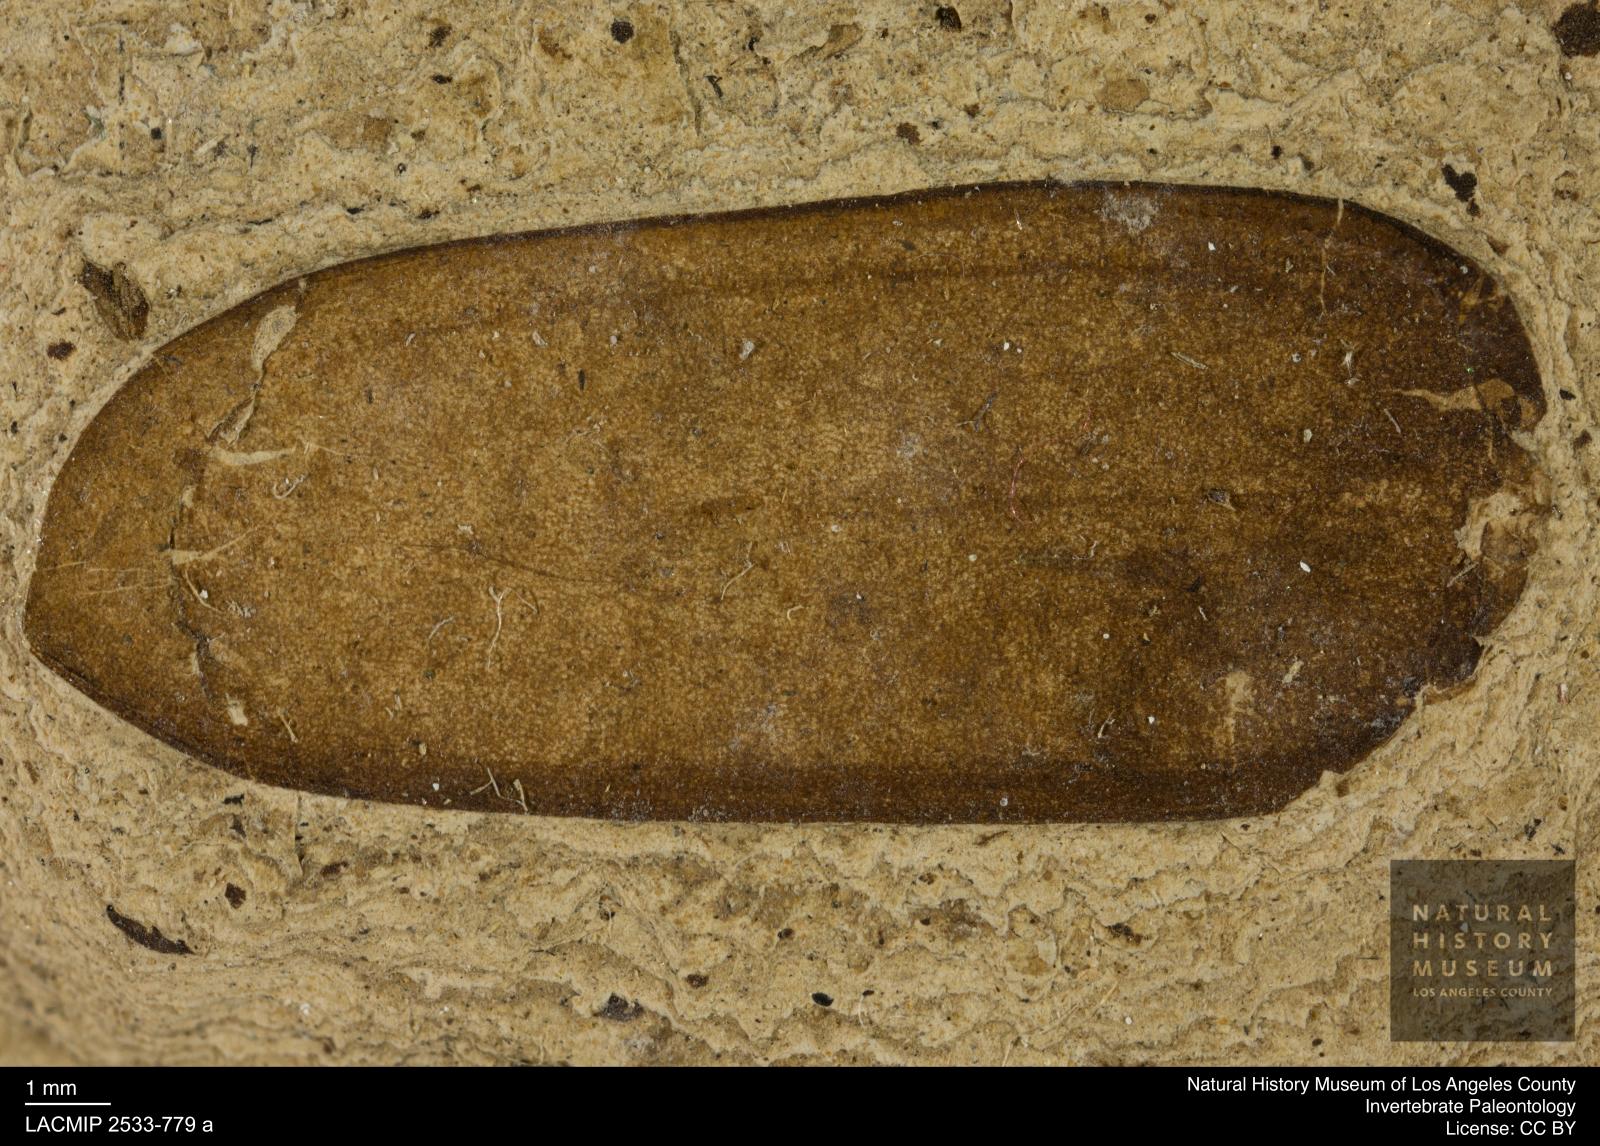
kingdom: Animalia
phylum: Arthropoda
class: Insecta
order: Coleoptera
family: Scarabaeidae
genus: Melolontha
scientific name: Melolontha
